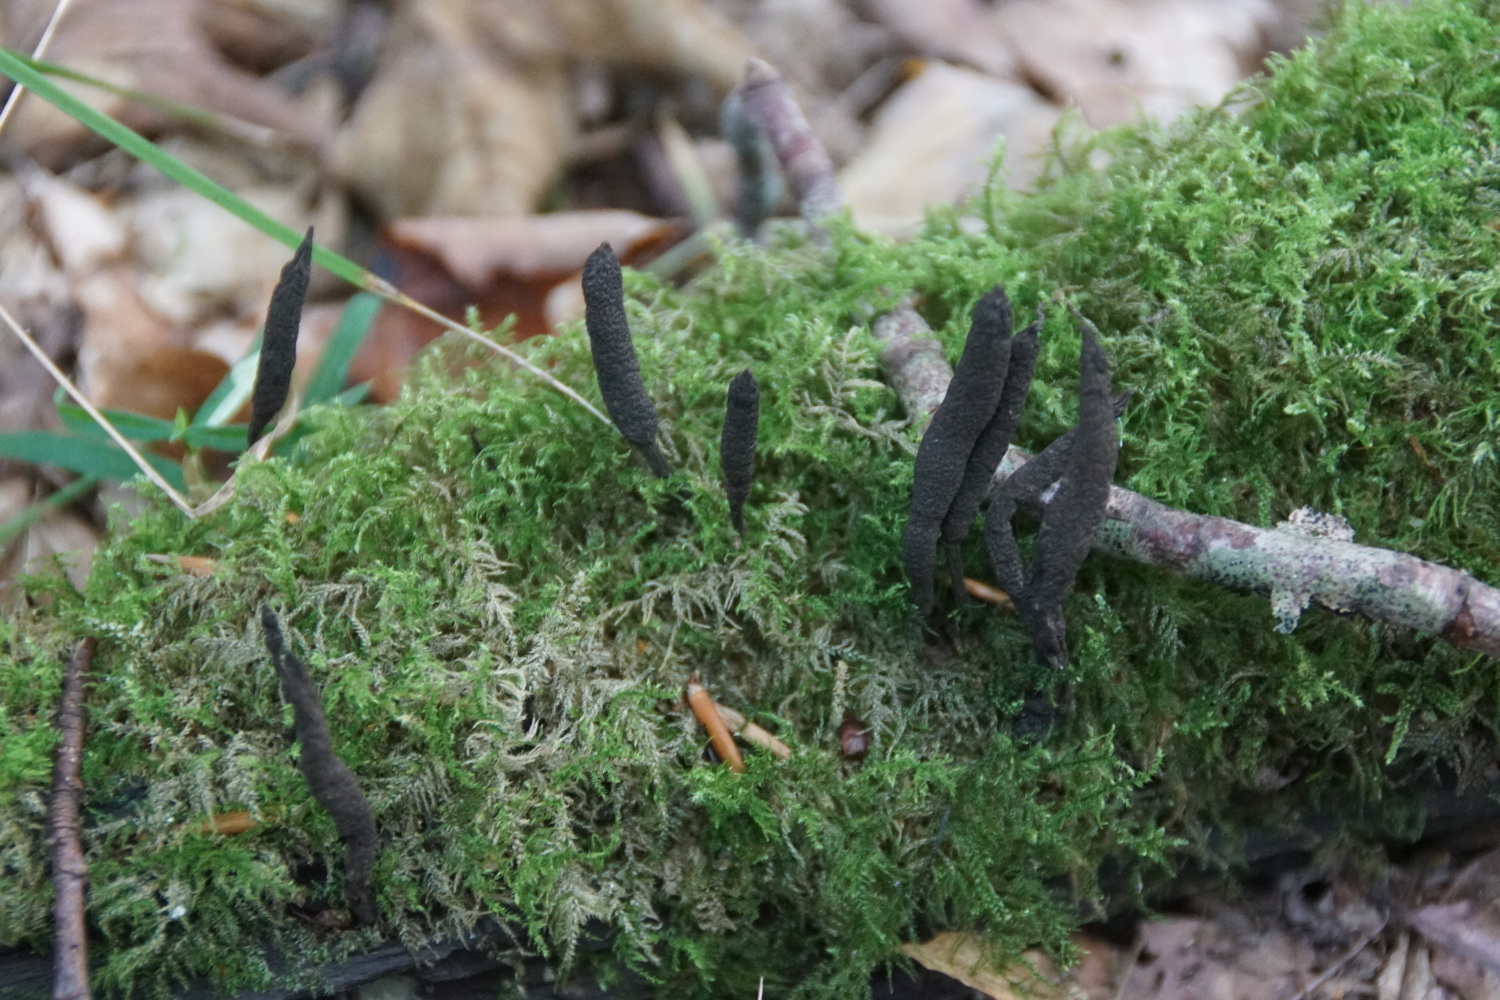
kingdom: Fungi
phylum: Ascomycota
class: Sordariomycetes
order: Xylariales
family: Xylariaceae
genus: Xylaria
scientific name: Xylaria longipes
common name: slank stødsvamp
